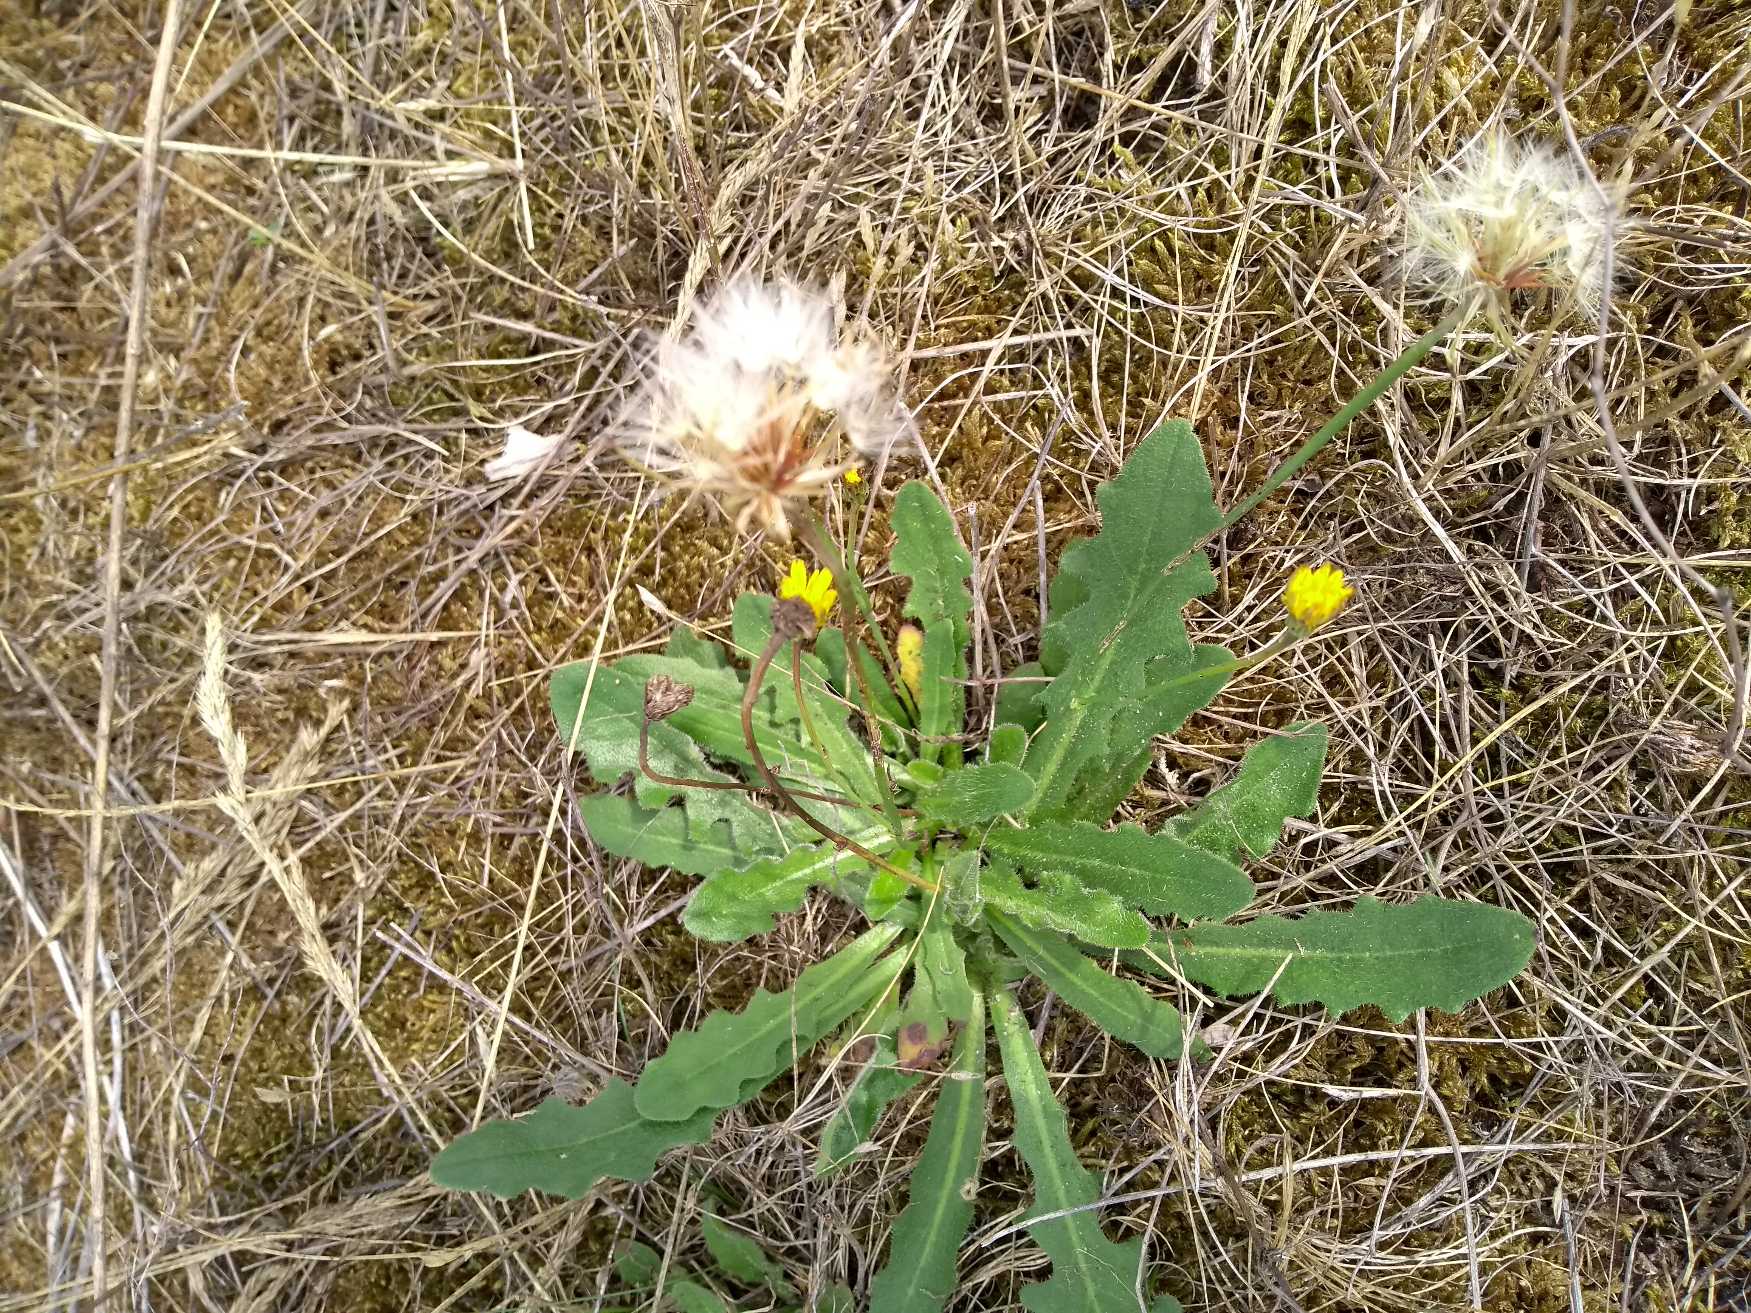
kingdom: Plantae
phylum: Tracheophyta
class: Magnoliopsida
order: Asterales
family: Asteraceae
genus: Hypochaeris
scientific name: Hypochaeris radicata
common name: Almindelig kongepen
